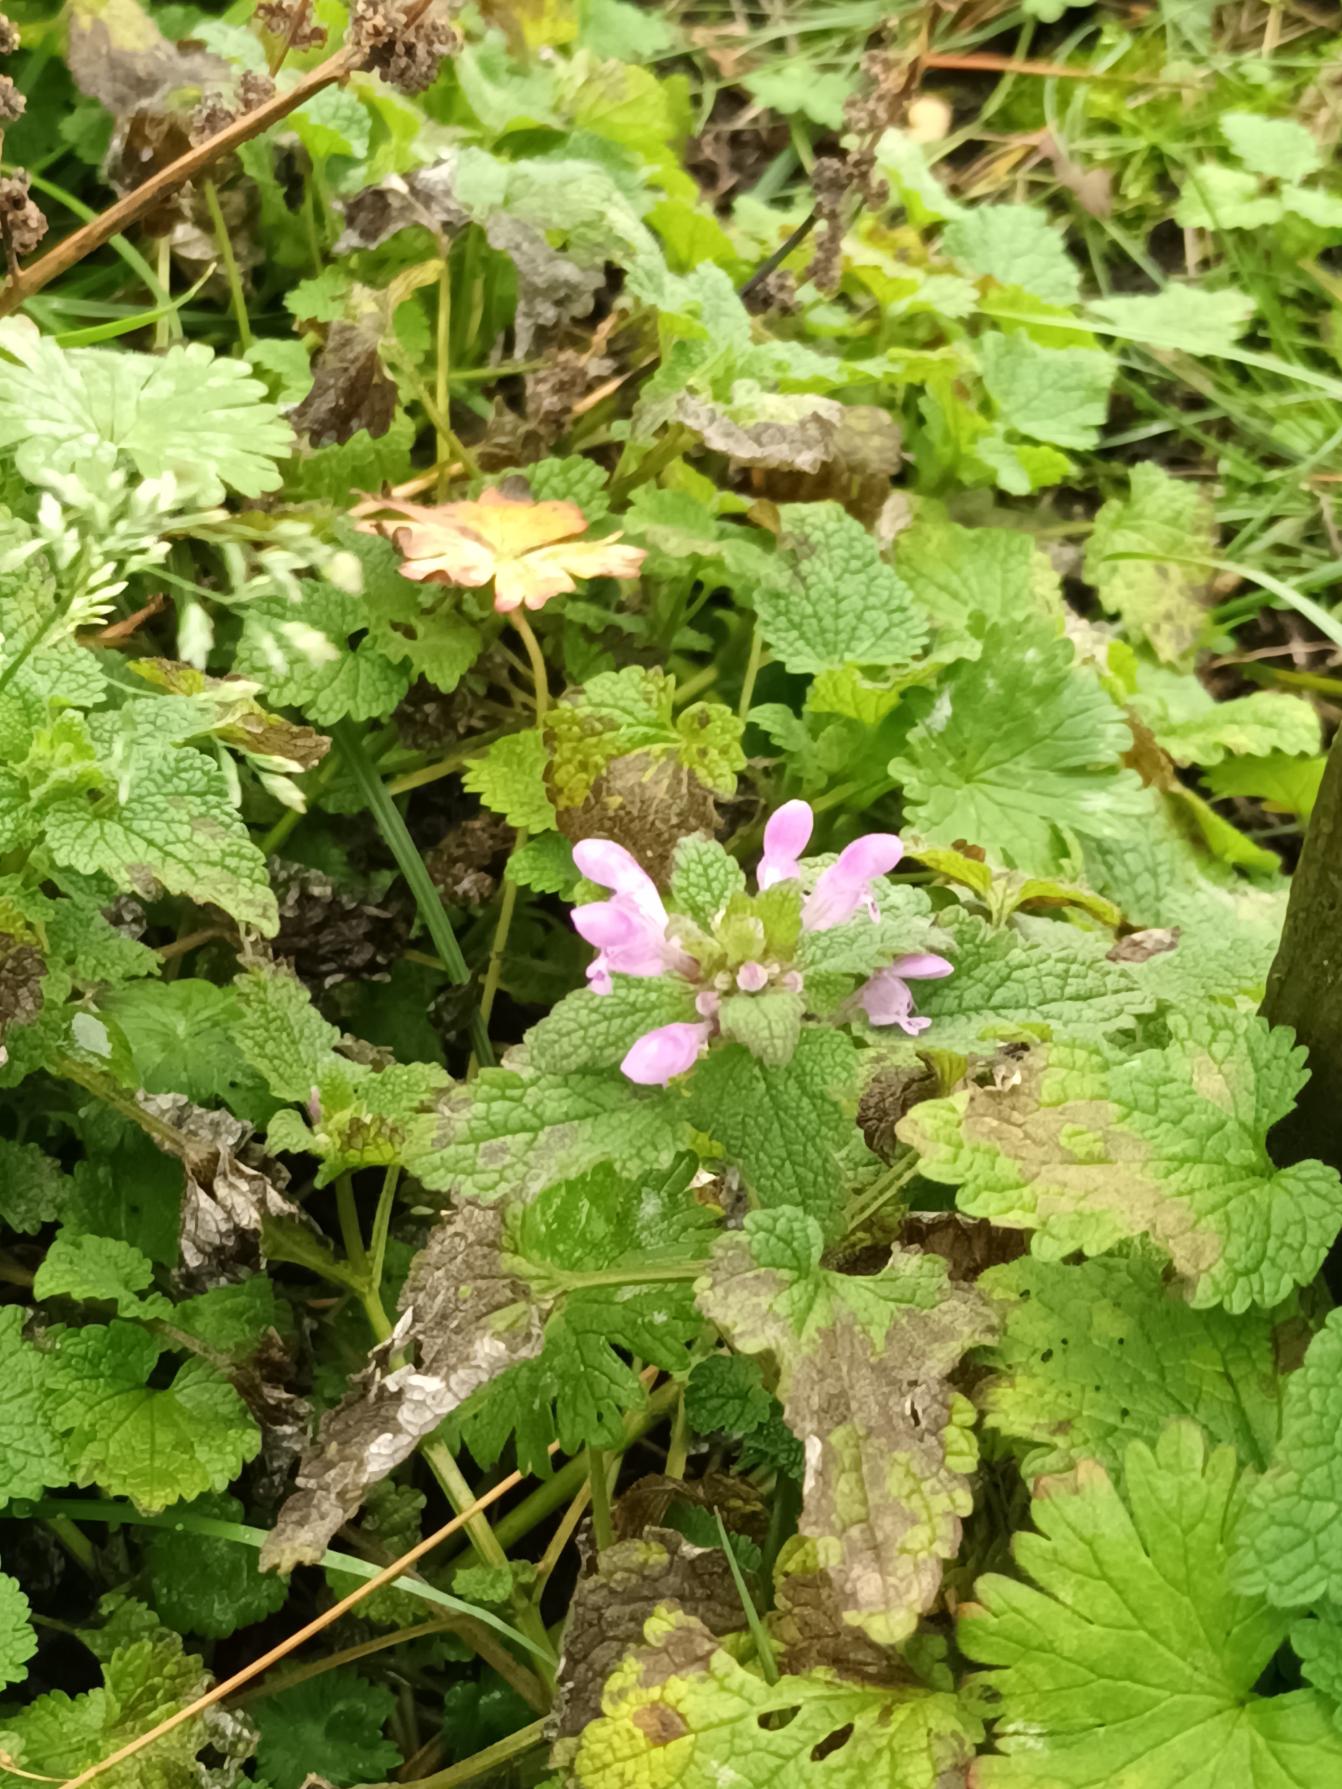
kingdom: Plantae
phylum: Tracheophyta
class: Magnoliopsida
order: Lamiales
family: Lamiaceae
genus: Lamium
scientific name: Lamium purpureum
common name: Rød tvetand
